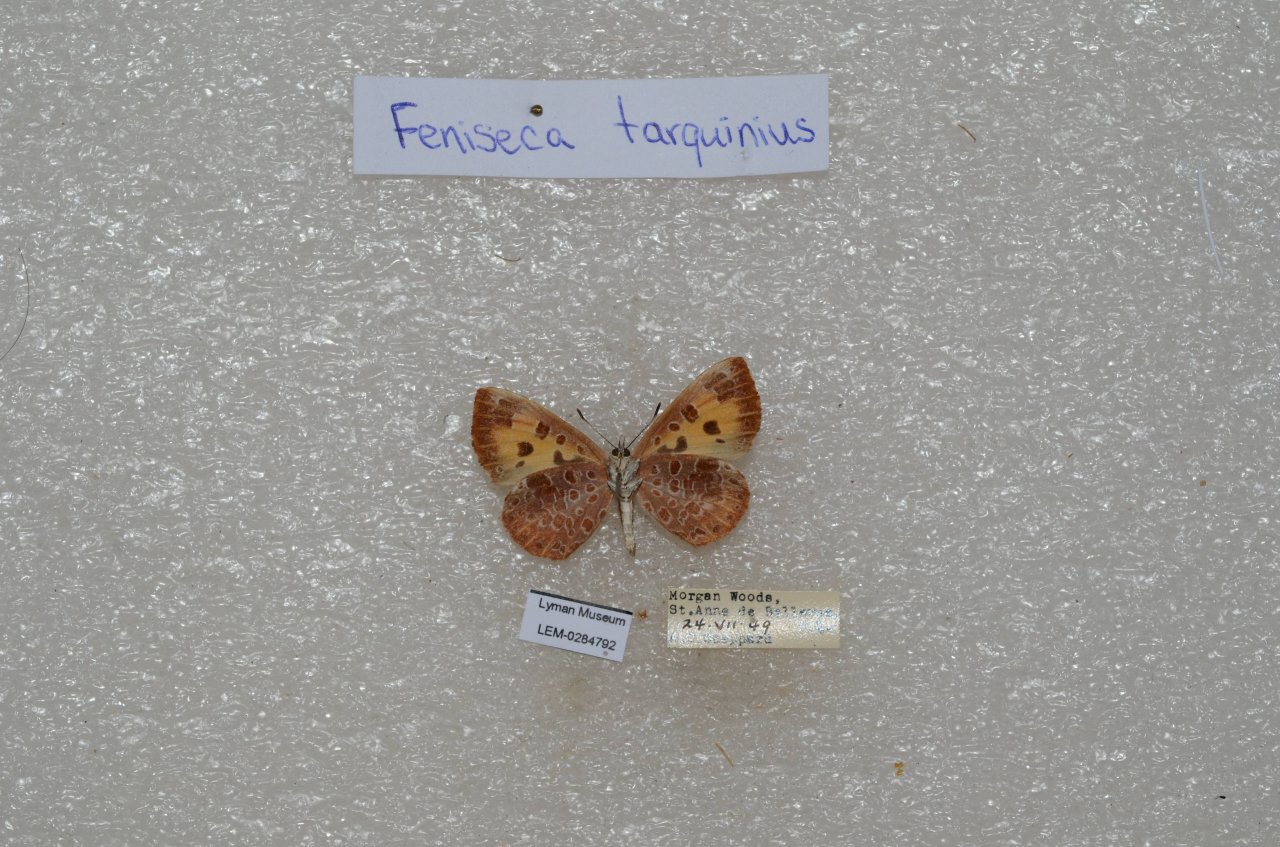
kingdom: Animalia
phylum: Arthropoda
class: Insecta
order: Lepidoptera
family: Lycaenidae
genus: Feniseca
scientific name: Feniseca tarquinius
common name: Harvester
